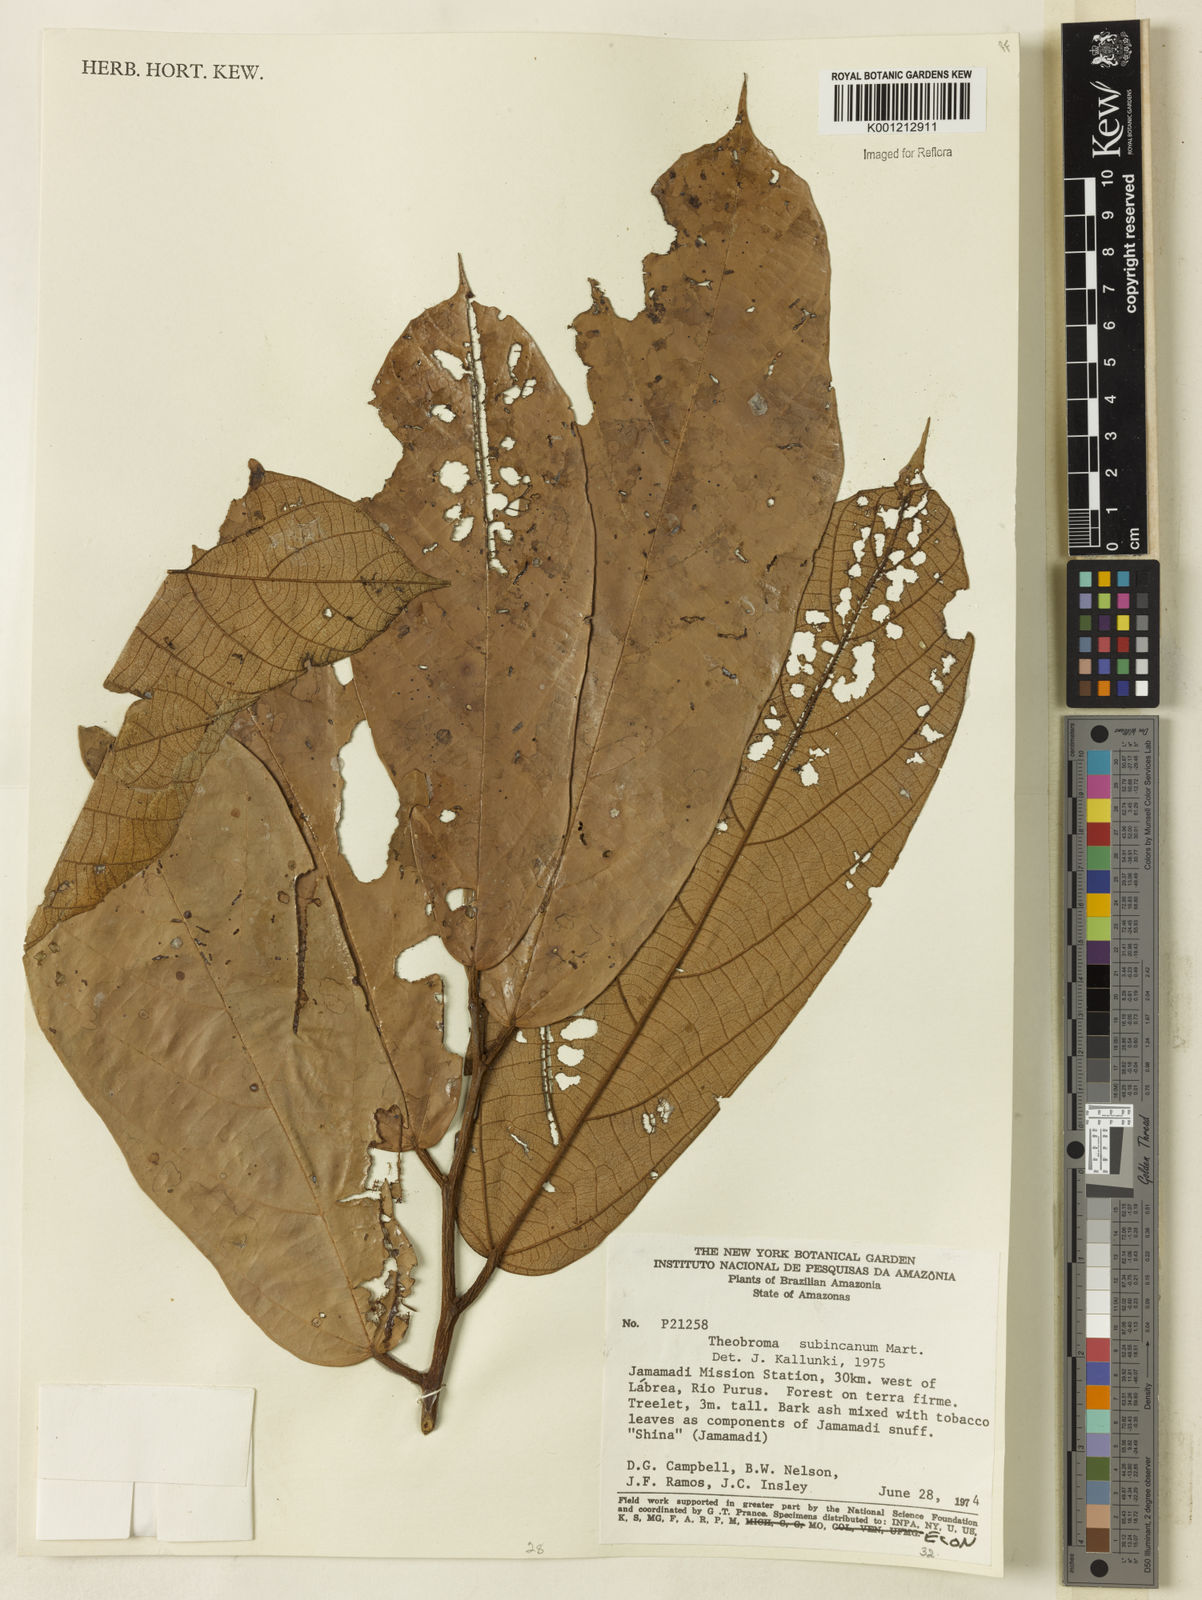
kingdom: Plantae
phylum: Tracheophyta
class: Magnoliopsida
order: Malvales
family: Malvaceae
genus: Theobroma
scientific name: Theobroma subincanum
